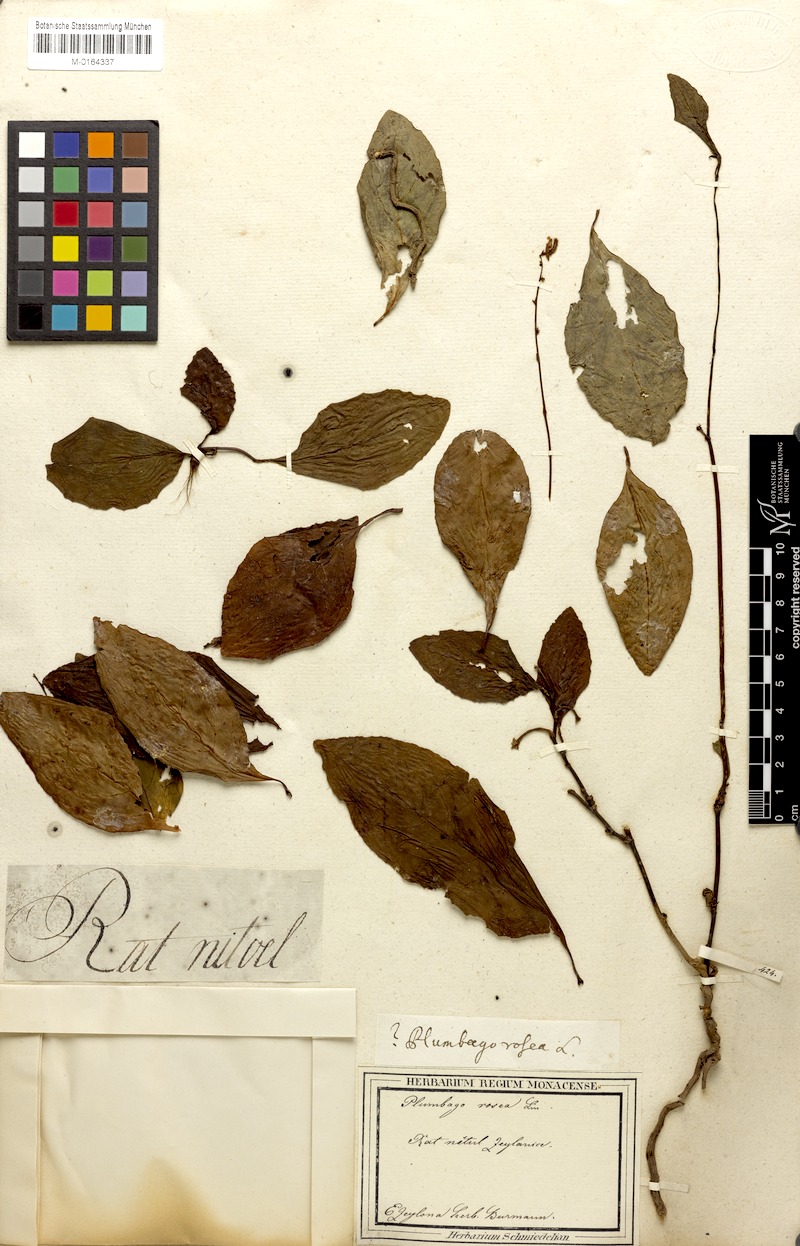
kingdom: Plantae
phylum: Tracheophyta
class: Magnoliopsida
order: Caryophyllales
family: Plumbaginaceae
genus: Plumbago
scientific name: Plumbago indica
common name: Indian leadwort
